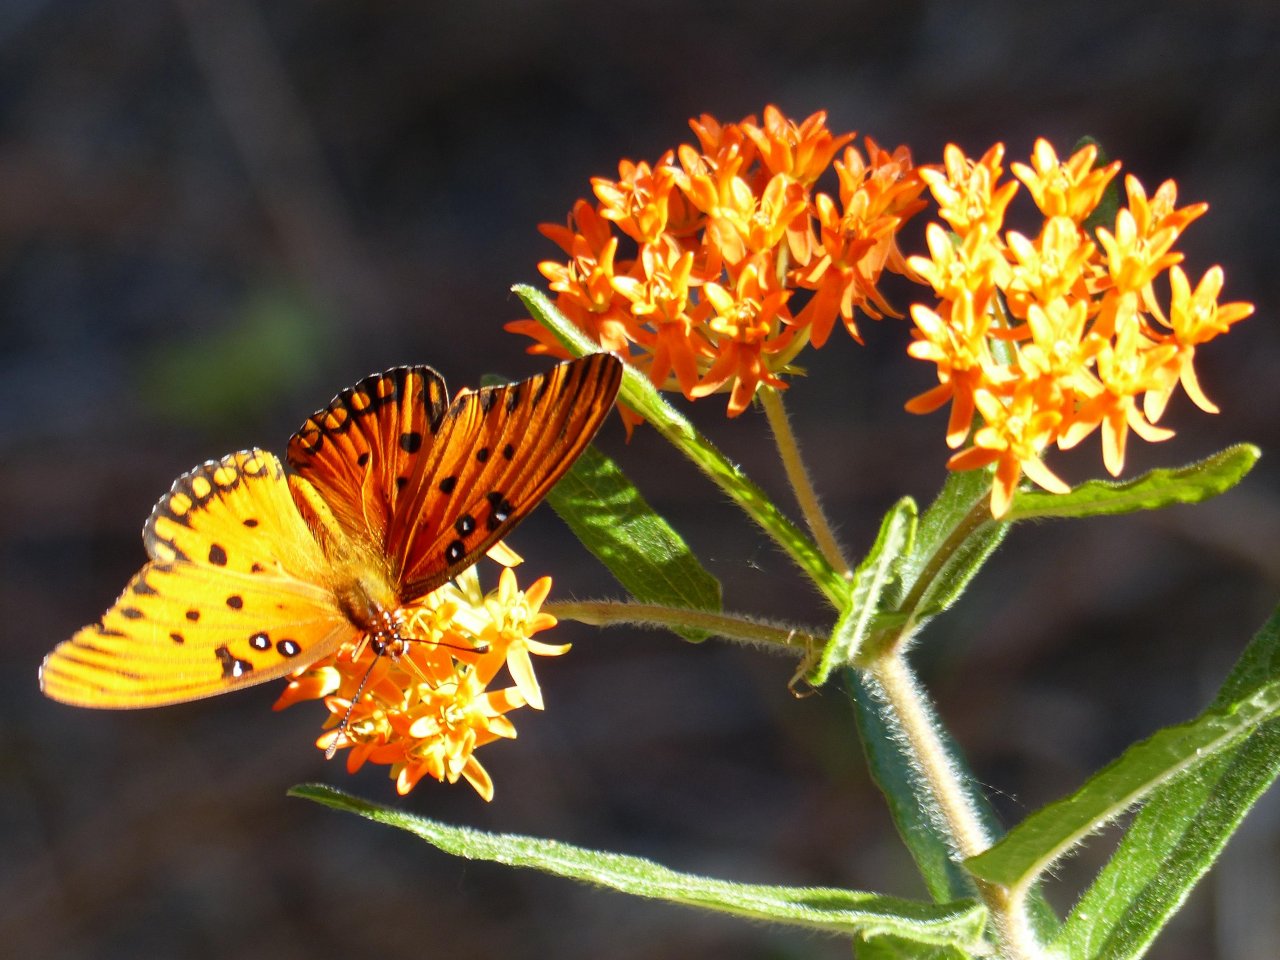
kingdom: Animalia
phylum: Arthropoda
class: Insecta
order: Lepidoptera
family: Nymphalidae
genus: Dione
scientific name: Dione vanillae
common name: Gulf Fritillary
